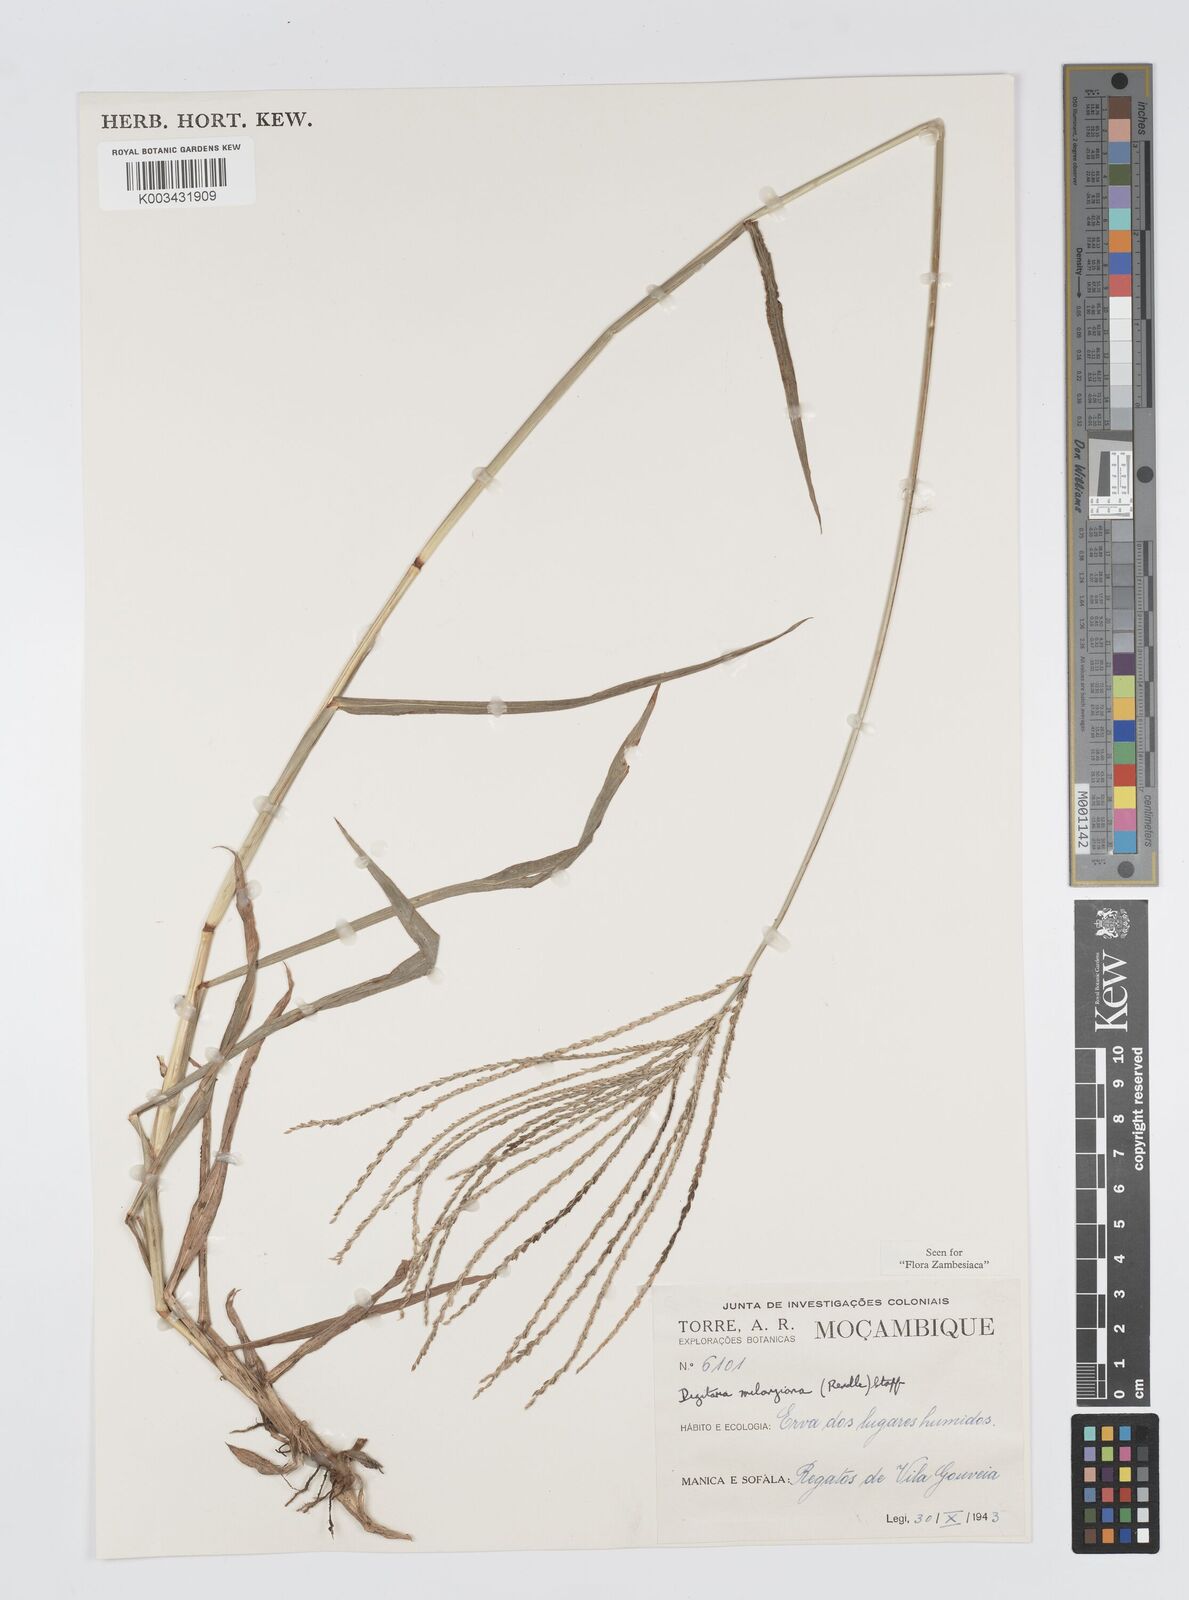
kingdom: Plantae
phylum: Tracheophyta
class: Liliopsida
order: Poales
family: Poaceae
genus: Digitaria
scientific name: Digitaria milanjiana
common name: Madagascar crabgrass
